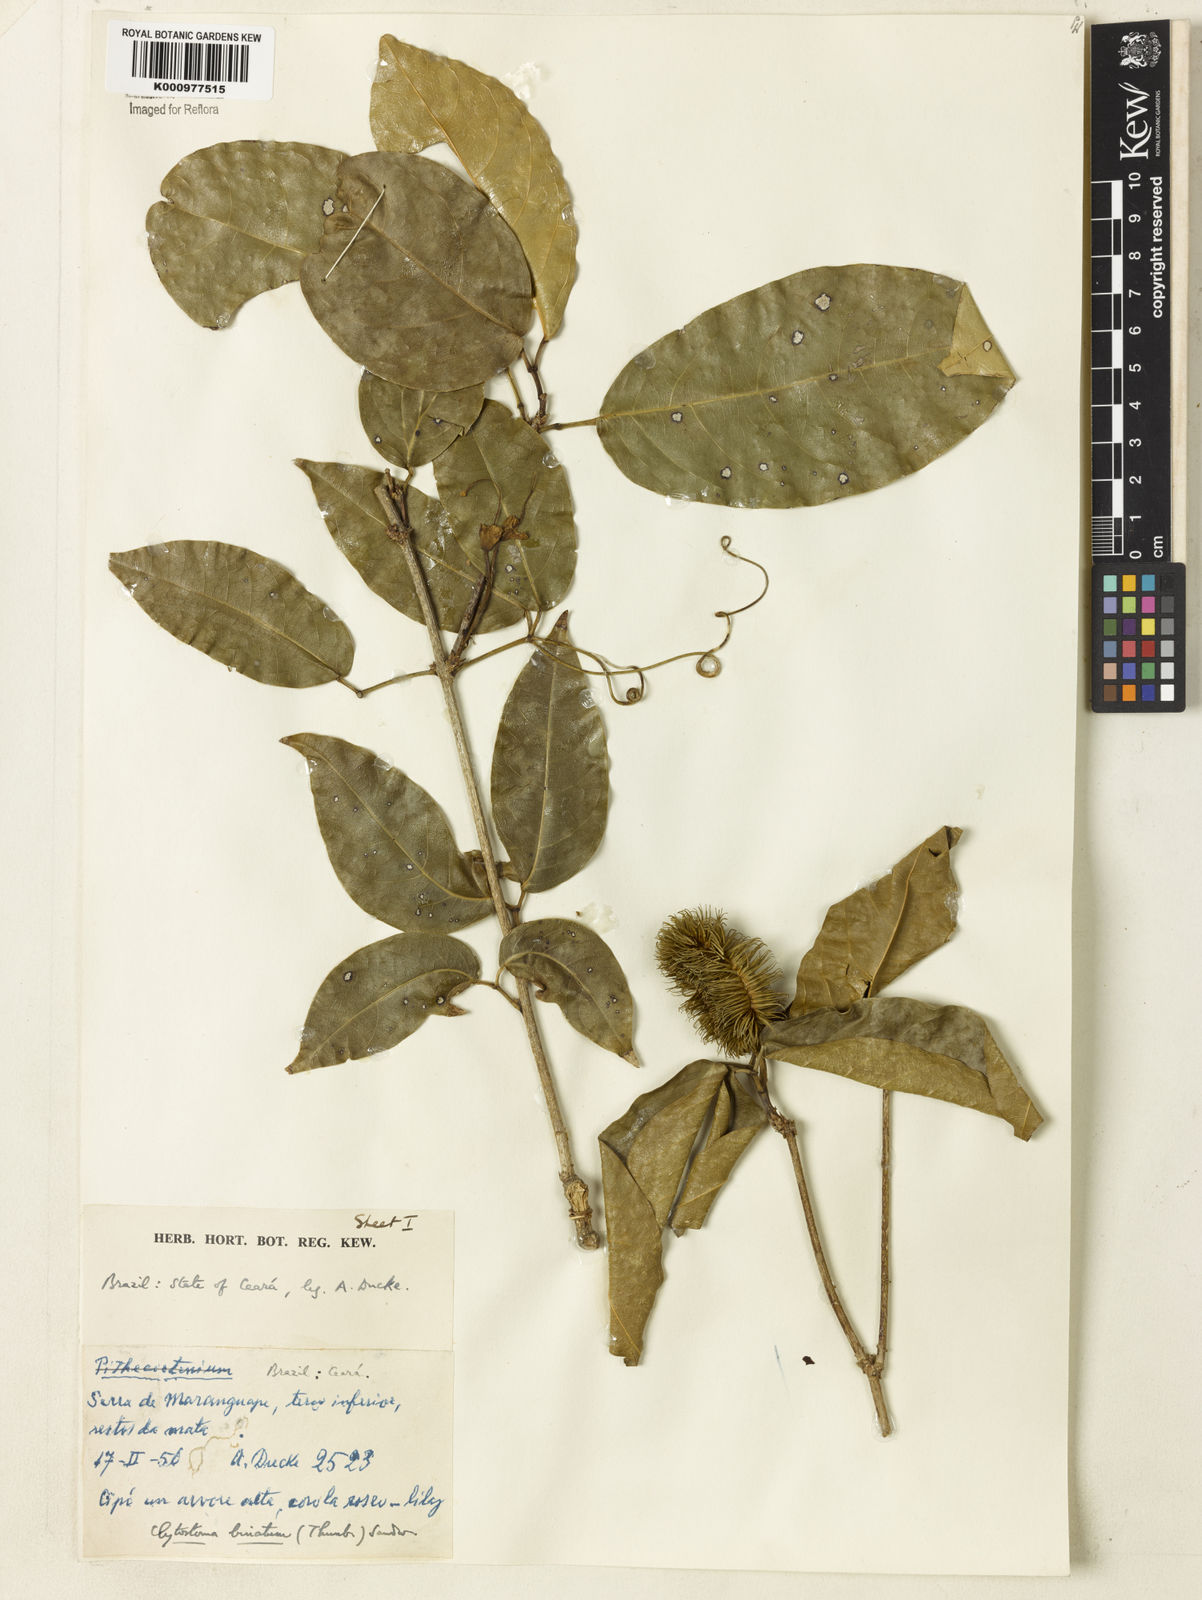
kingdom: Plantae
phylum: Tracheophyta
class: Magnoliopsida
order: Lamiales
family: Bignoniaceae
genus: Bignonia
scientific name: Bignonia binata
